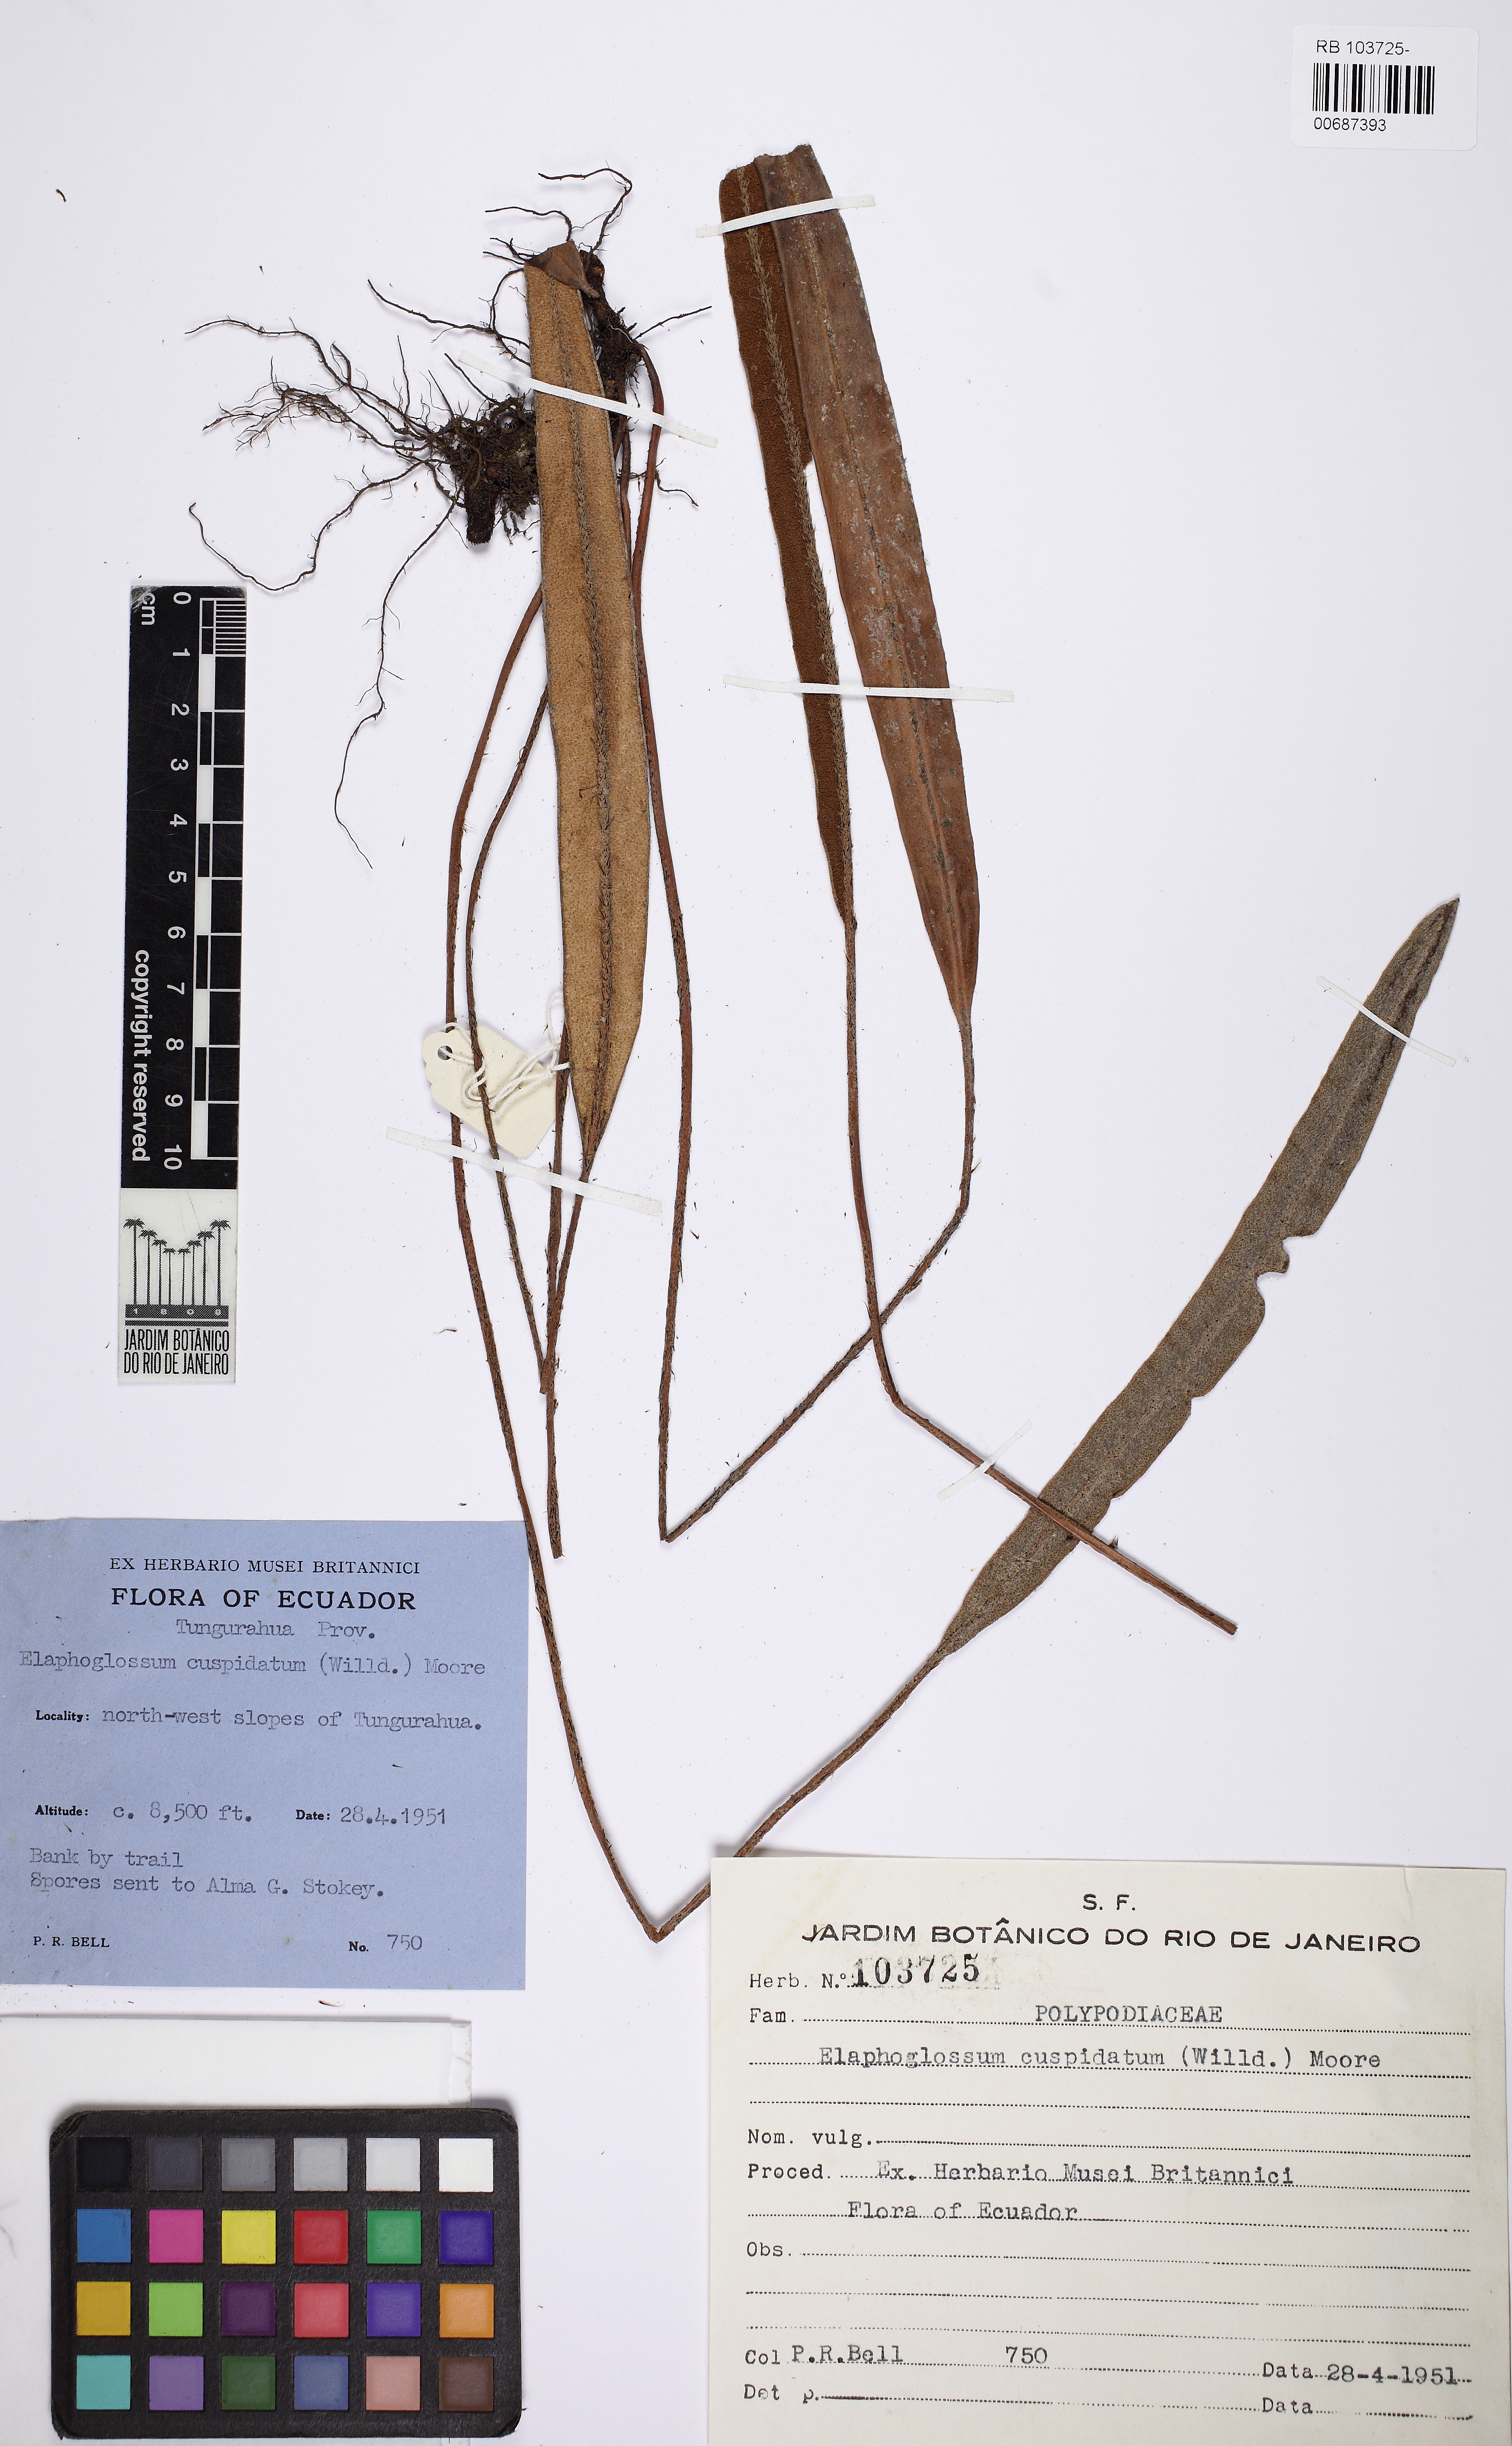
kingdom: Plantae
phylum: Tracheophyta
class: Polypodiopsida
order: Polypodiales
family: Dryopteridaceae
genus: Elaphoglossum
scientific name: Elaphoglossum cuspidatum
